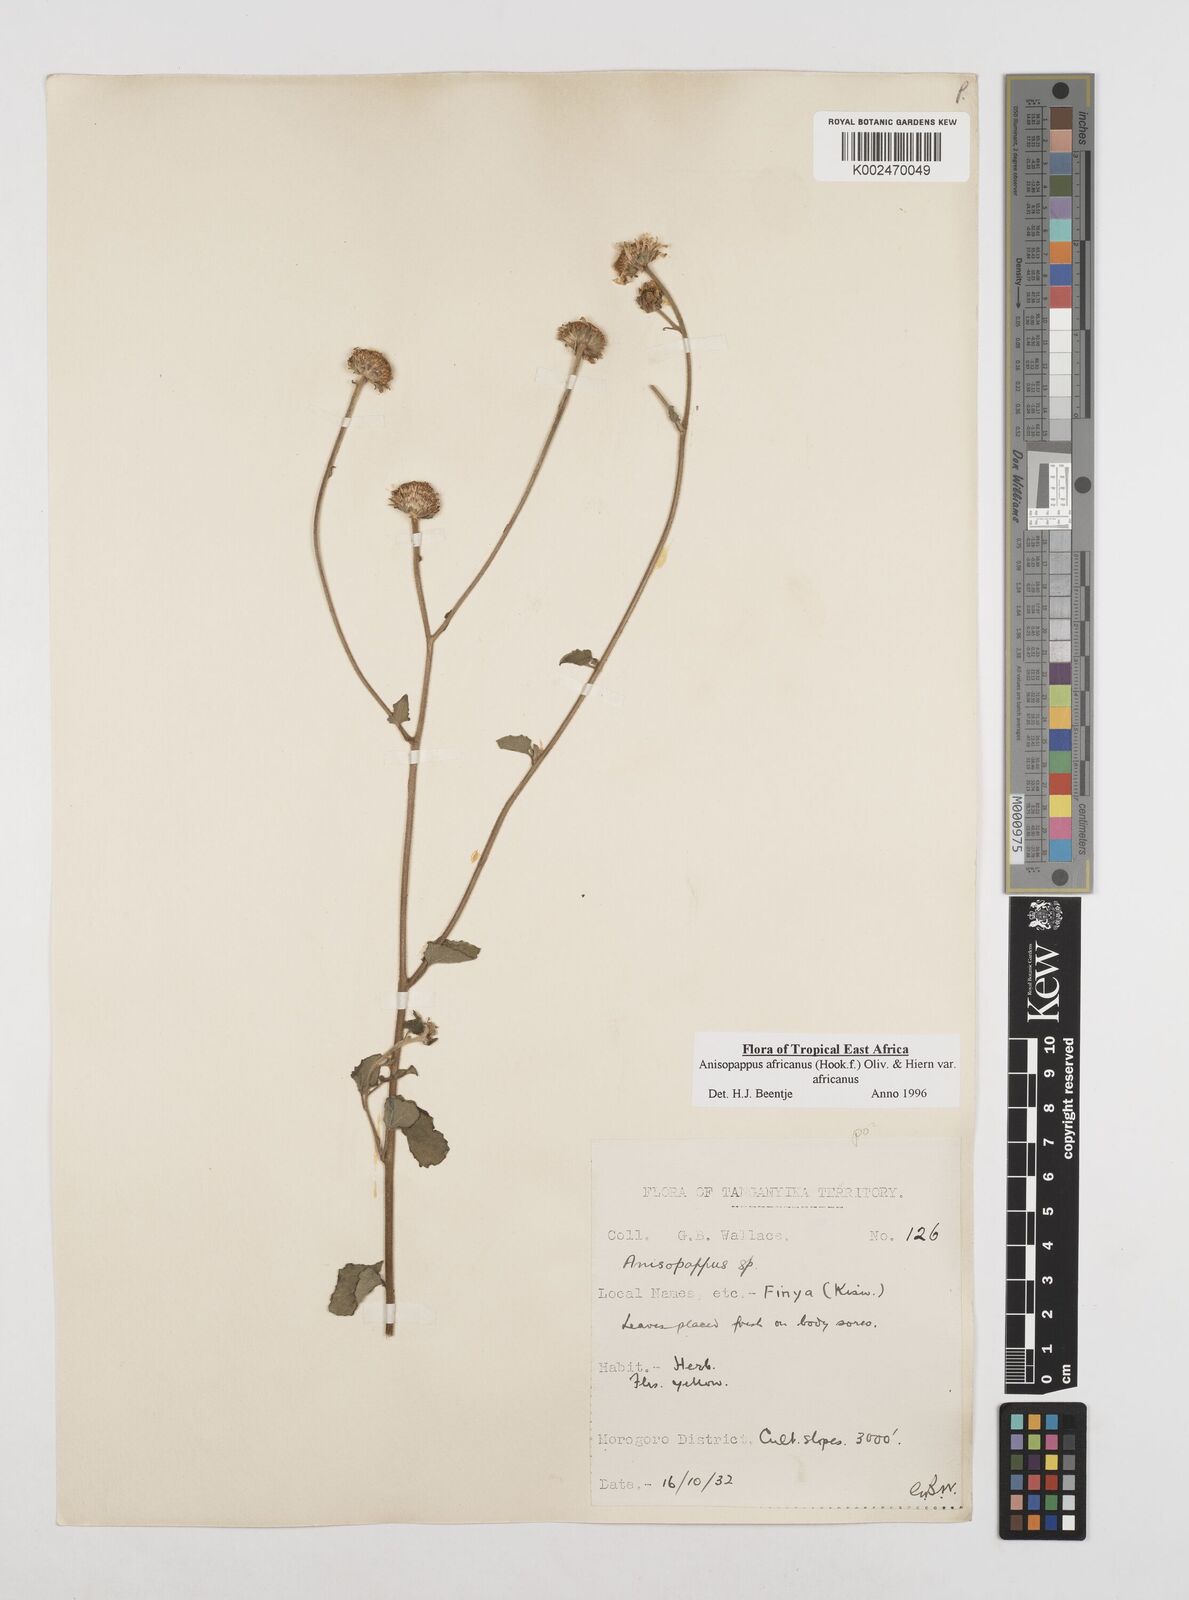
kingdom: Plantae
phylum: Tracheophyta
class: Magnoliopsida
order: Asterales
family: Asteraceae
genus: Anisopappus
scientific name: Anisopappus buchwaldii
